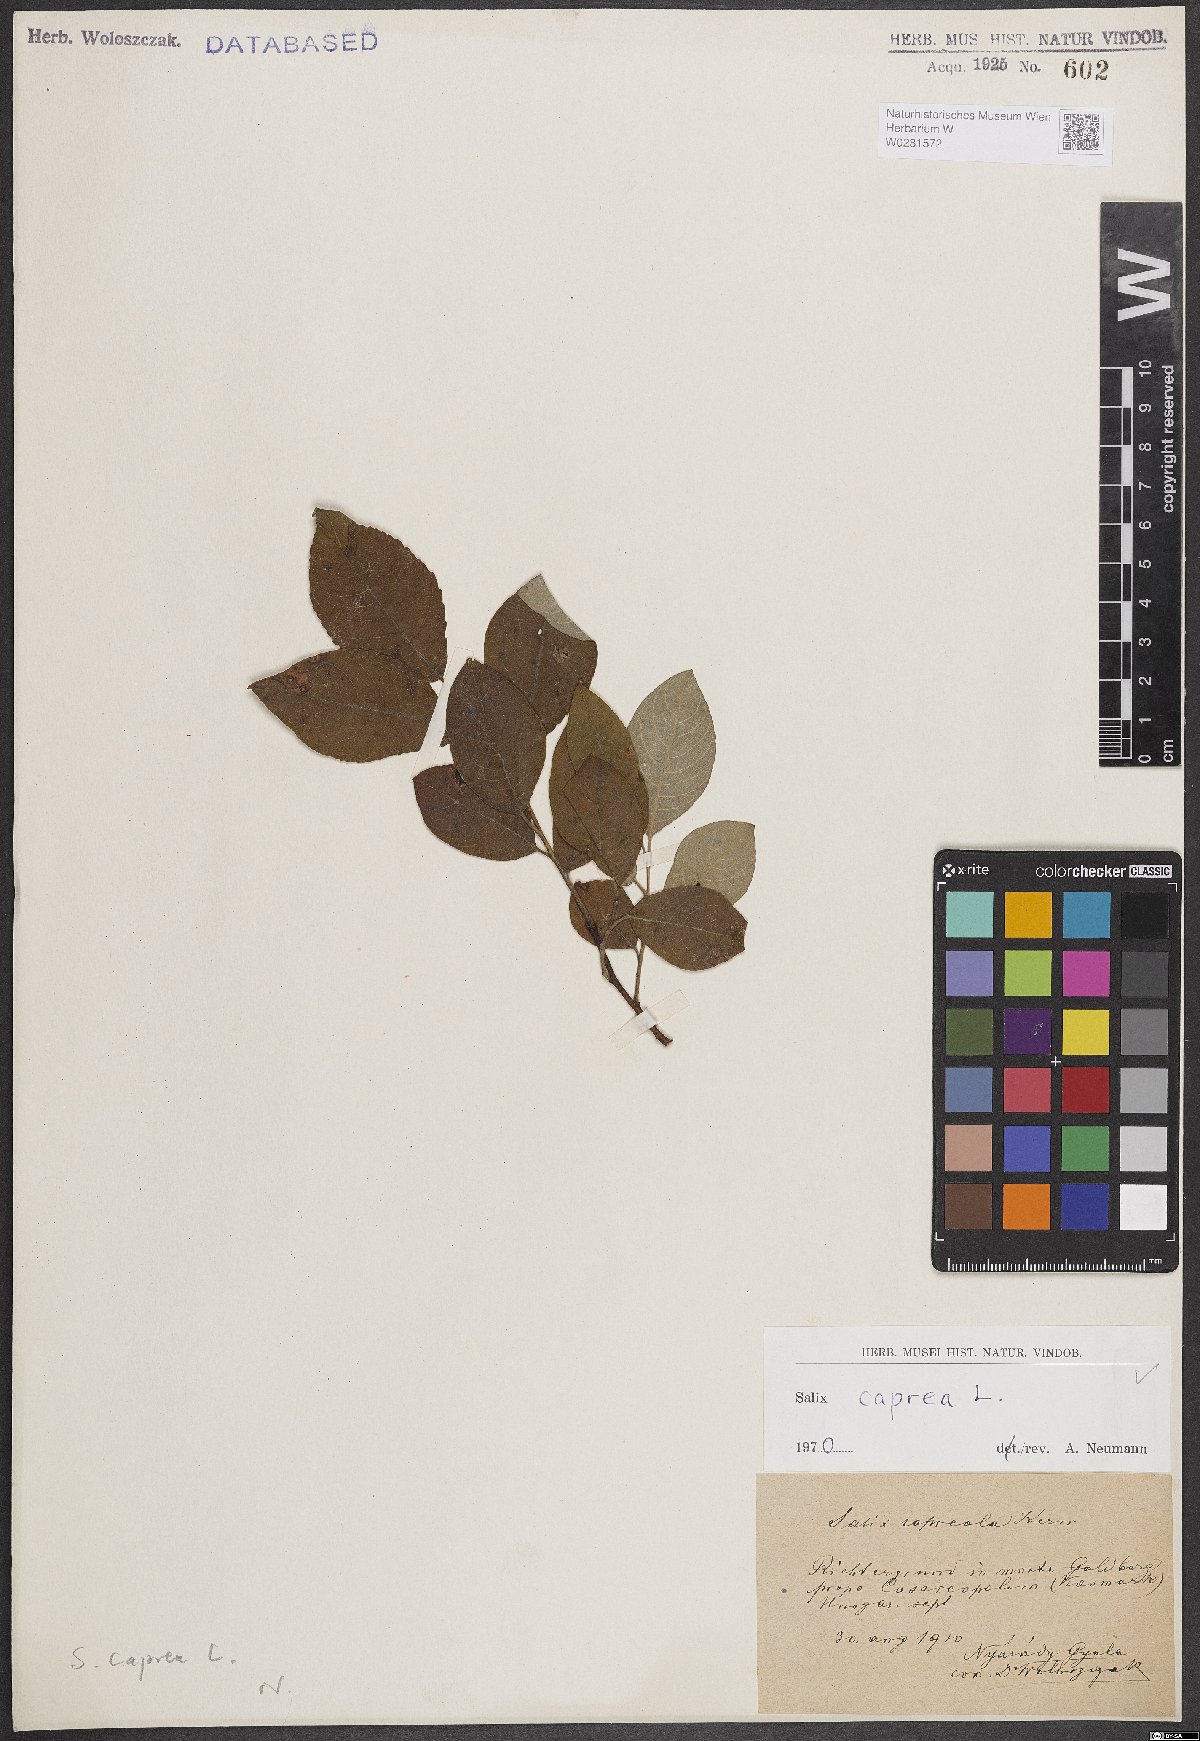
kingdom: Plantae
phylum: Tracheophyta
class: Magnoliopsida
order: Malpighiales
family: Salicaceae
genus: Salix
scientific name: Salix caprea
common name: Goat willow
